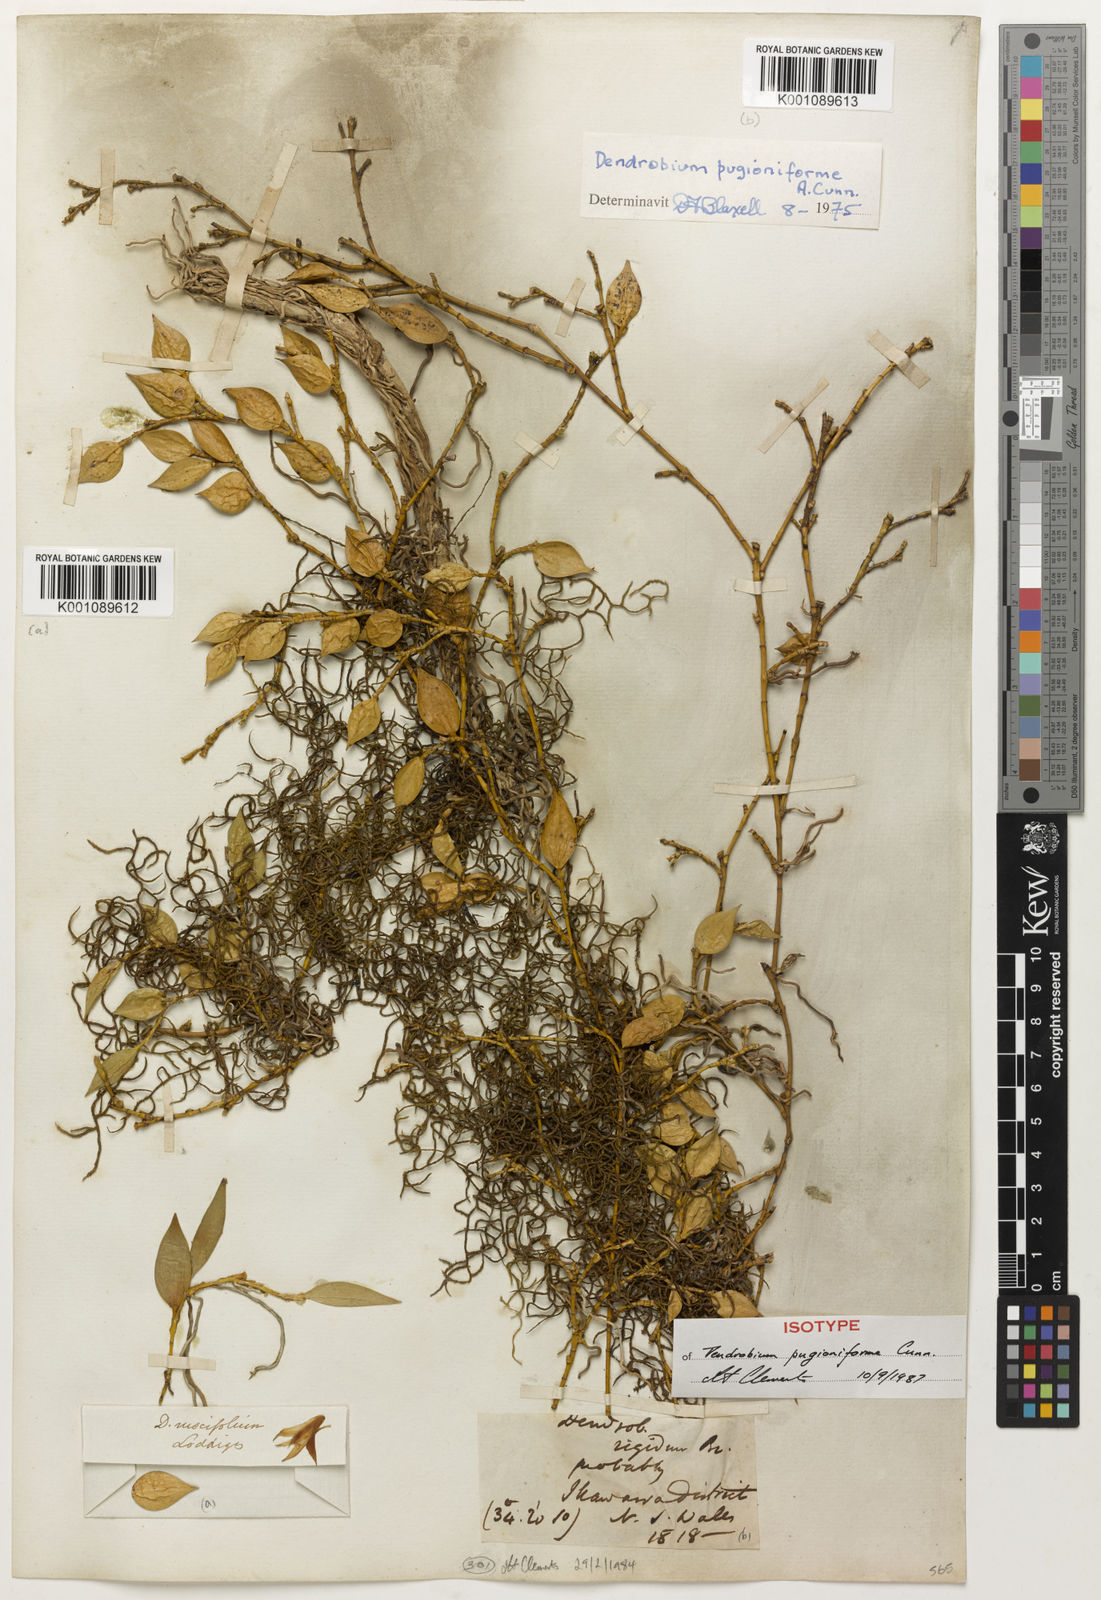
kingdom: Plantae
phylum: Tracheophyta
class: Liliopsida
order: Asparagales
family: Orchidaceae
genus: Dendrobium
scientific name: Dendrobium
